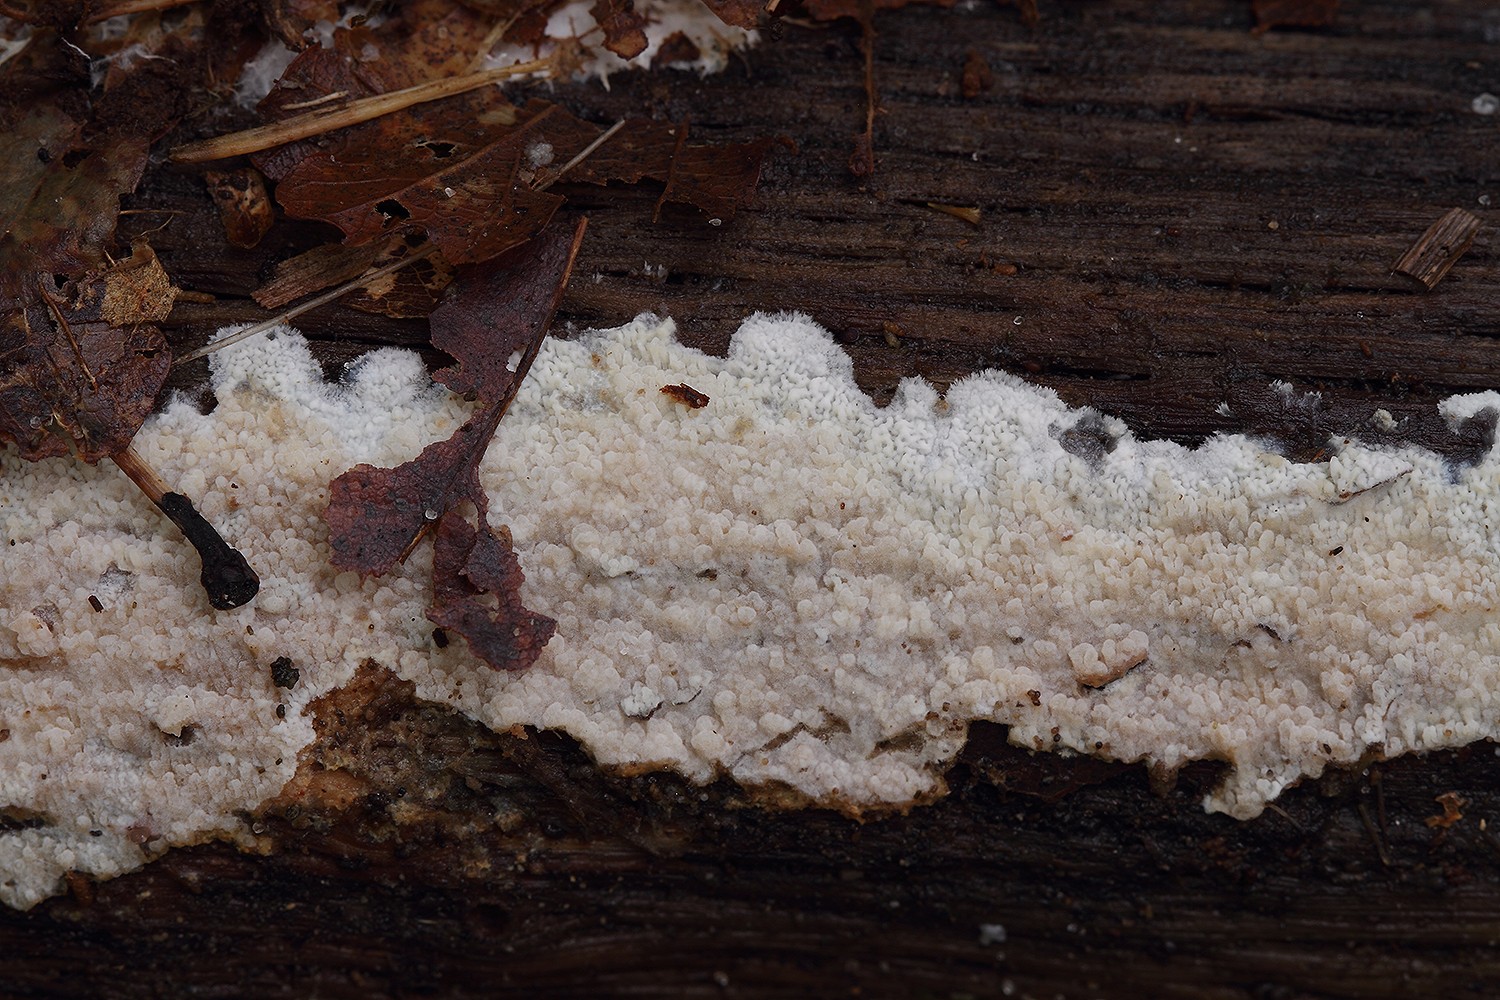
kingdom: Fungi
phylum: Basidiomycota
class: Agaricomycetes
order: Polyporales
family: Meruliaceae
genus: Phlebia
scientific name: Phlebia rufa
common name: ege-åresvamp
